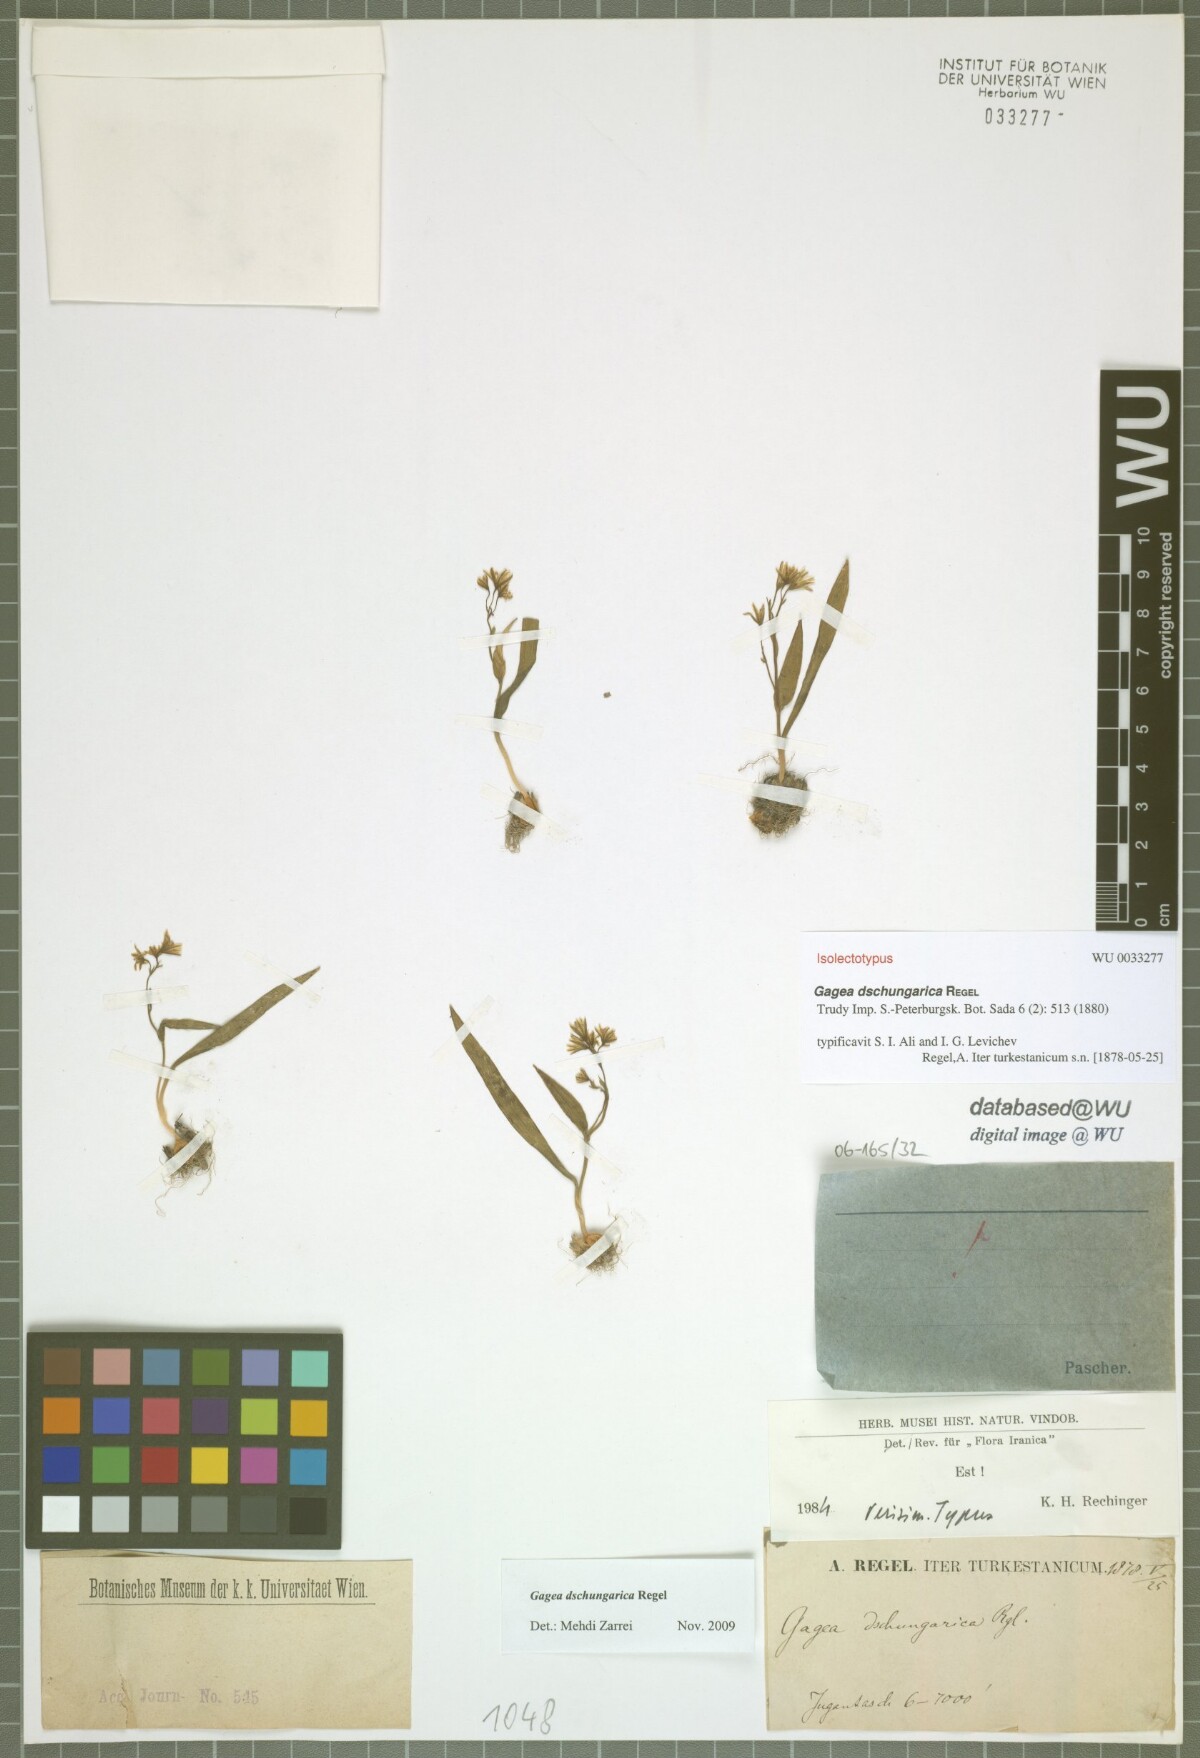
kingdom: Plantae
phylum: Tracheophyta
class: Liliopsida
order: Liliales
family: Liliaceae
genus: Gagea
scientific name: Gagea dschungarica
